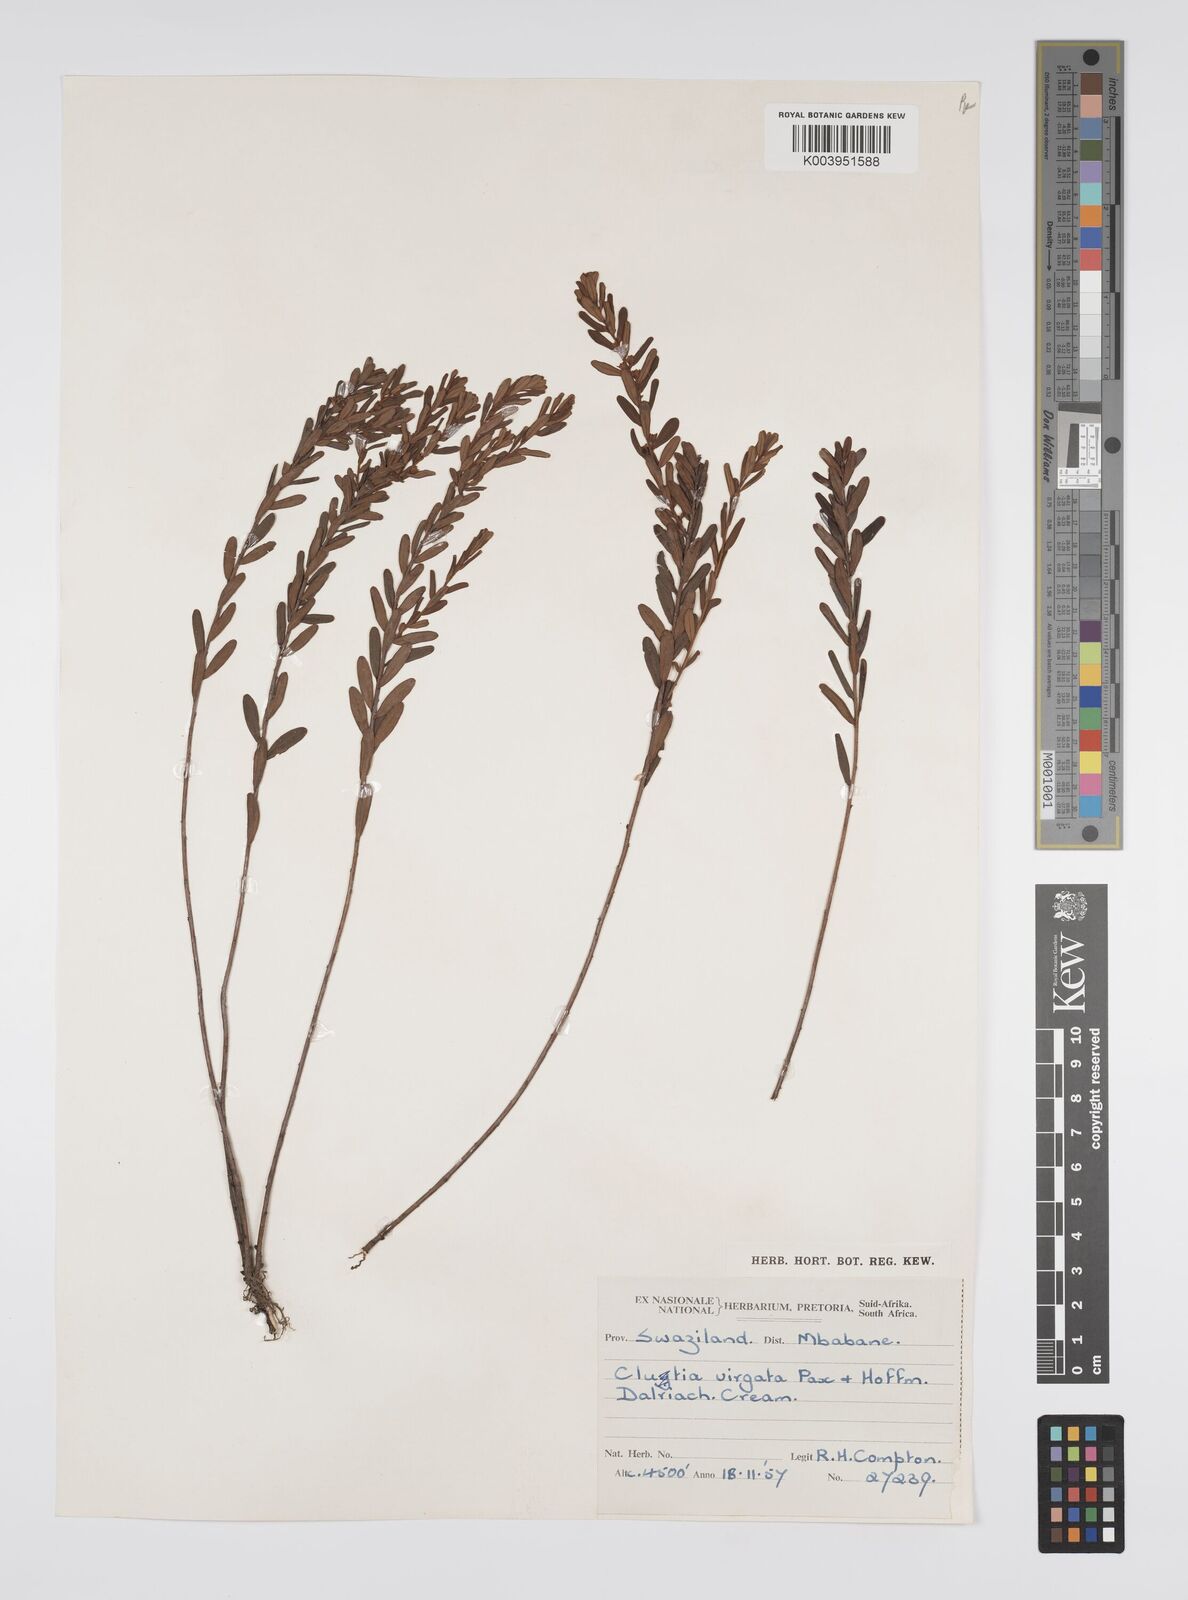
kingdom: Plantae
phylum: Tracheophyta
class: Magnoliopsida
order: Malpighiales
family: Peraceae
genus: Clutia
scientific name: Clutia virgata
